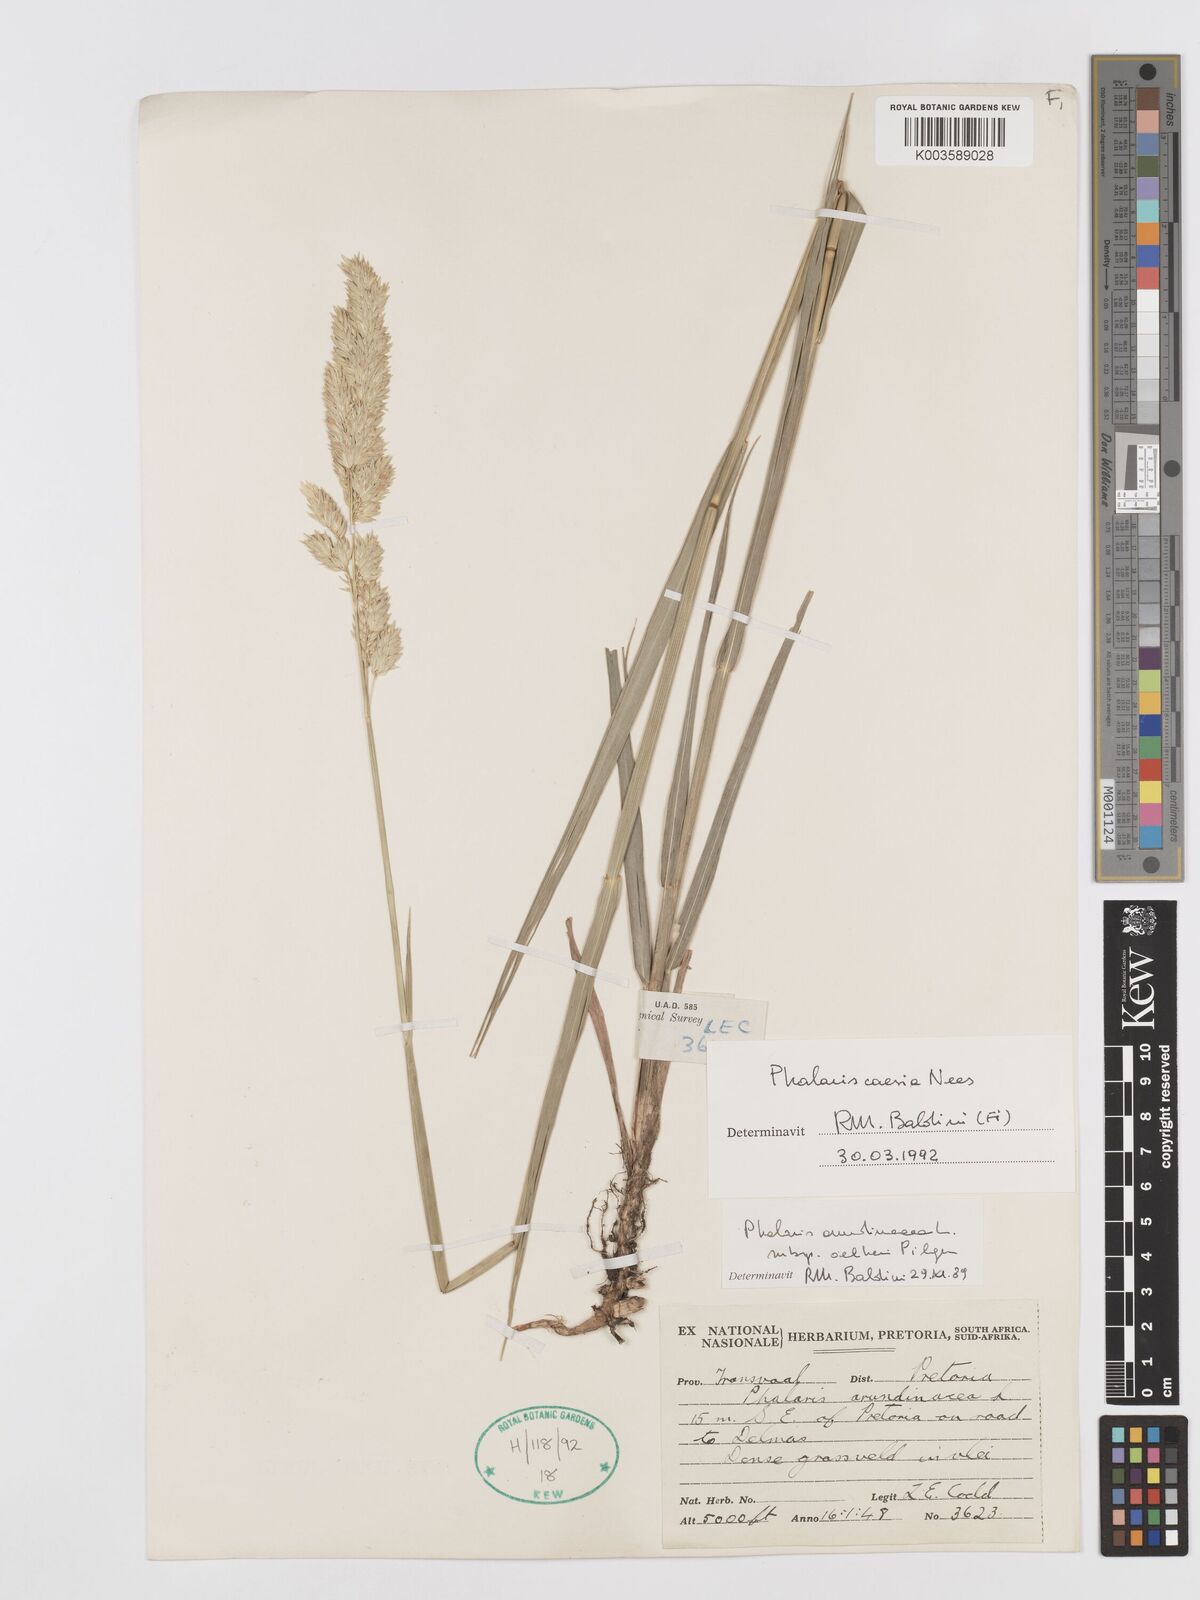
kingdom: Plantae
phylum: Tracheophyta
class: Liliopsida
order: Poales
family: Poaceae
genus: Phalaris
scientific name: Phalaris arundinacea
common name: Reed canary-grass
